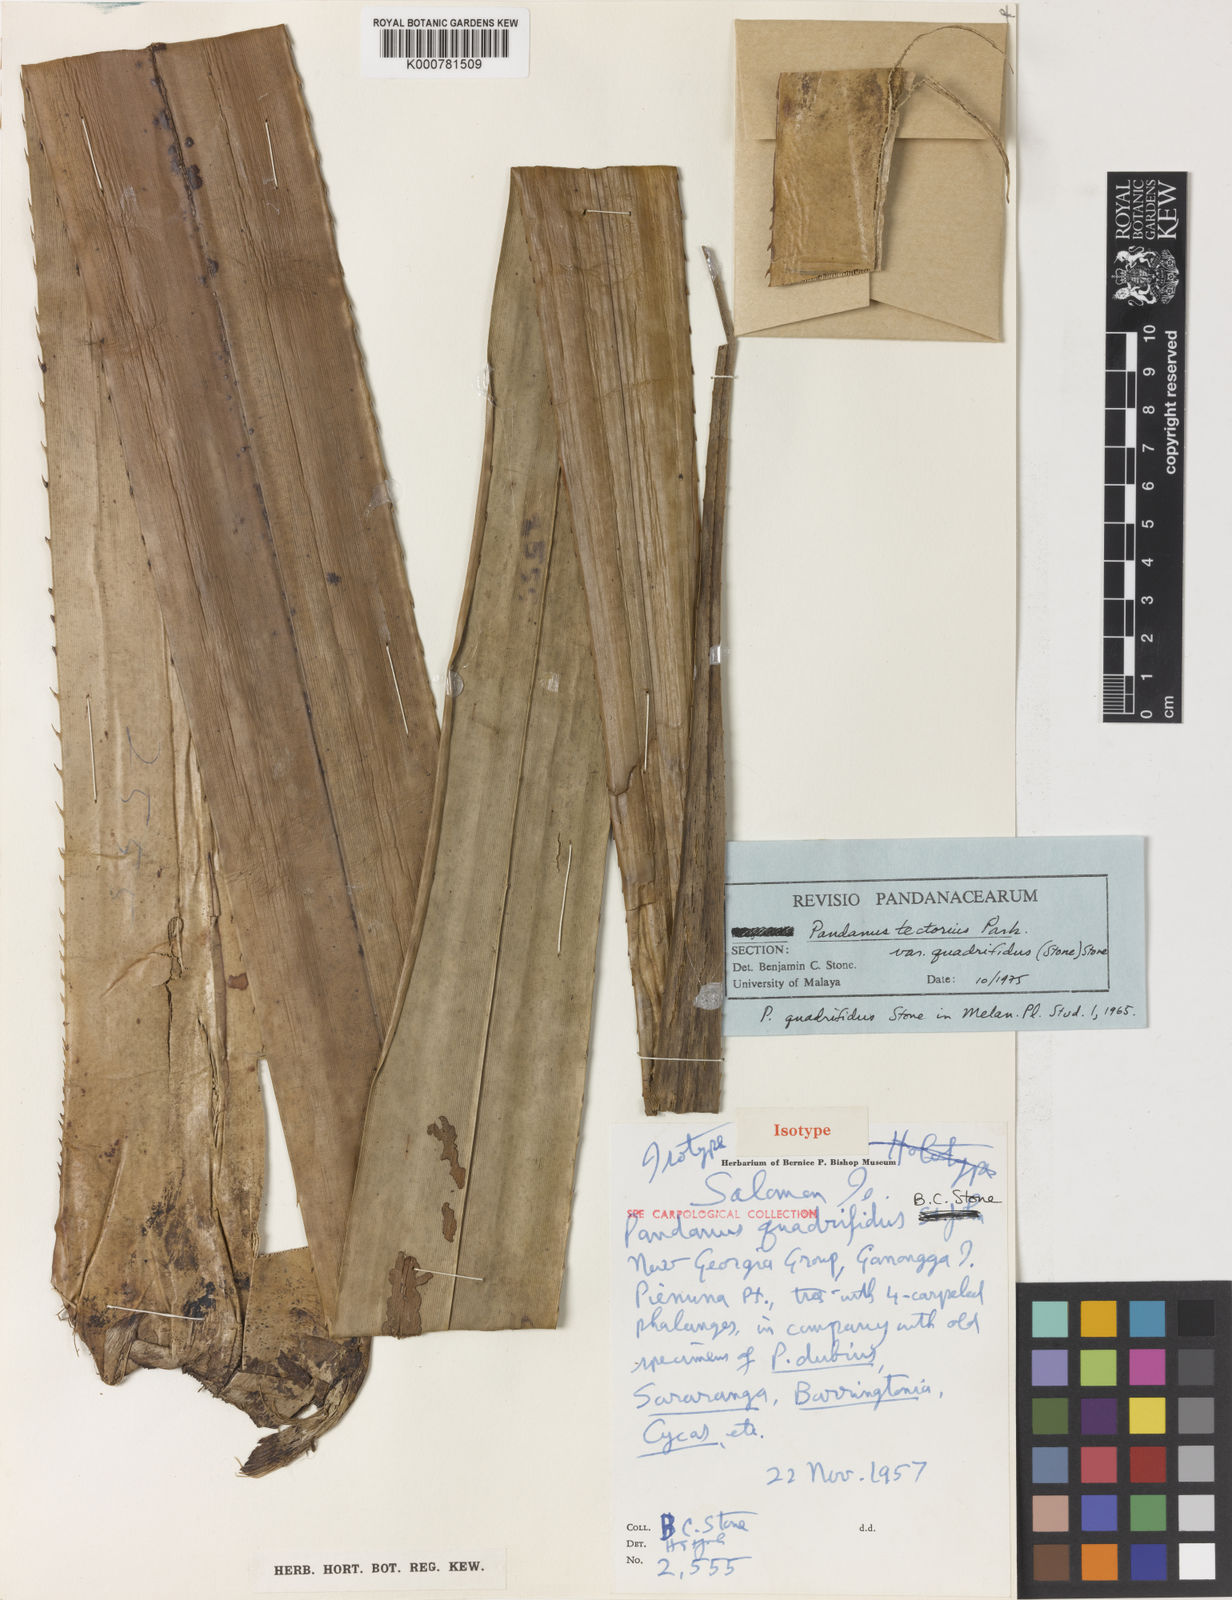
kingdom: Plantae
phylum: Tracheophyta
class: Liliopsida
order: Pandanales
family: Pandanaceae
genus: Pandanus
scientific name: Pandanus
